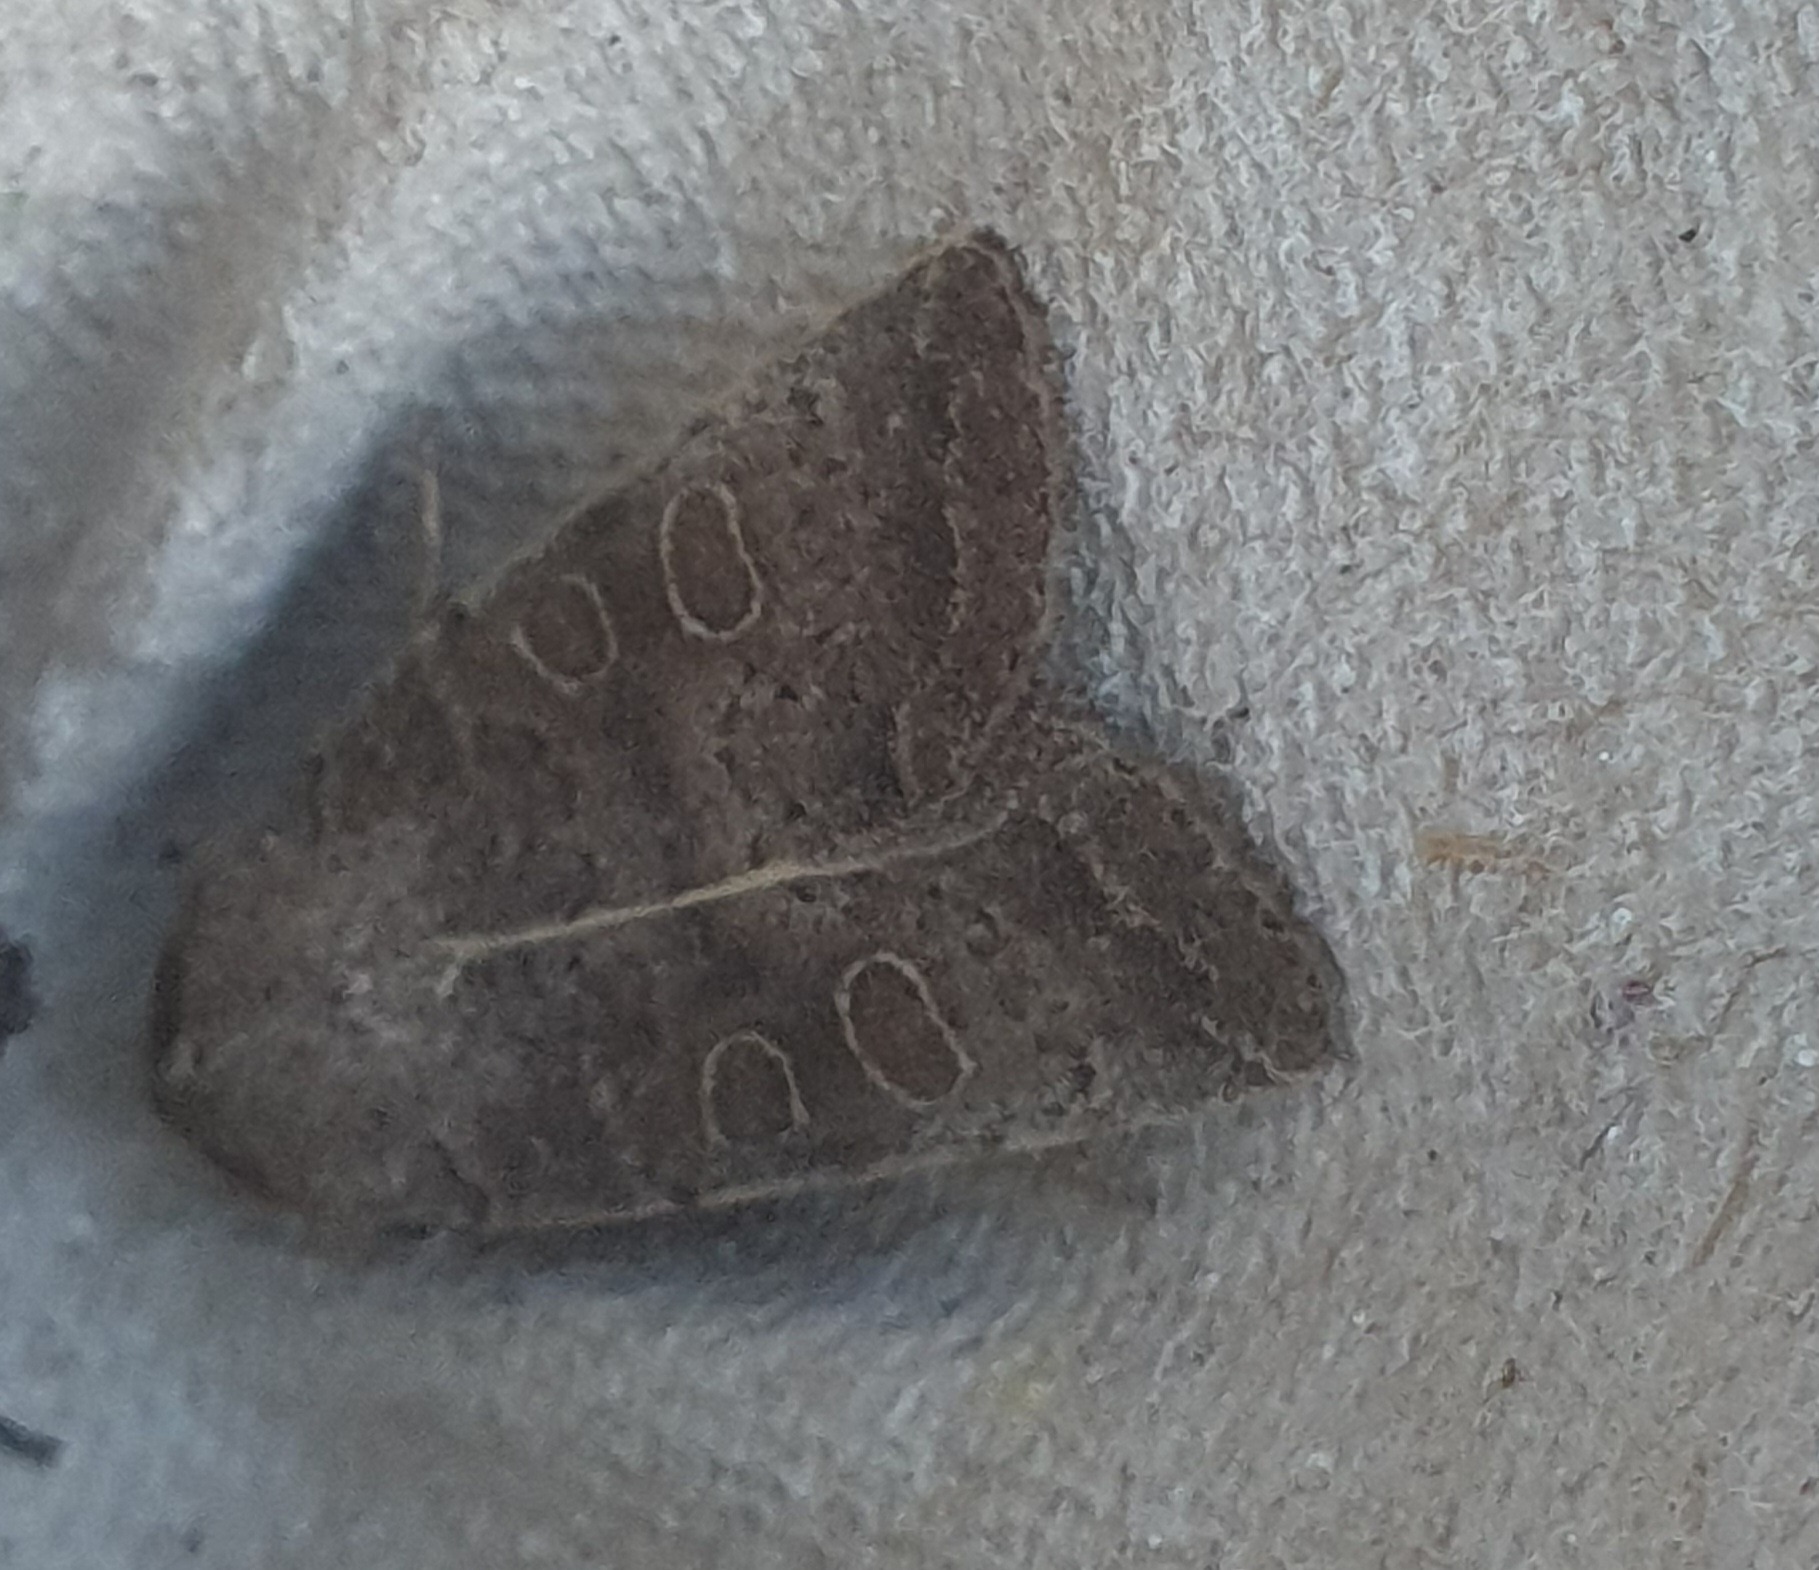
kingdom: Animalia
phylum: Arthropoda
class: Insecta
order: Lepidoptera
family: Noctuidae
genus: Hoplodrina
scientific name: Hoplodrina ambigua
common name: Tvivlsom mus
